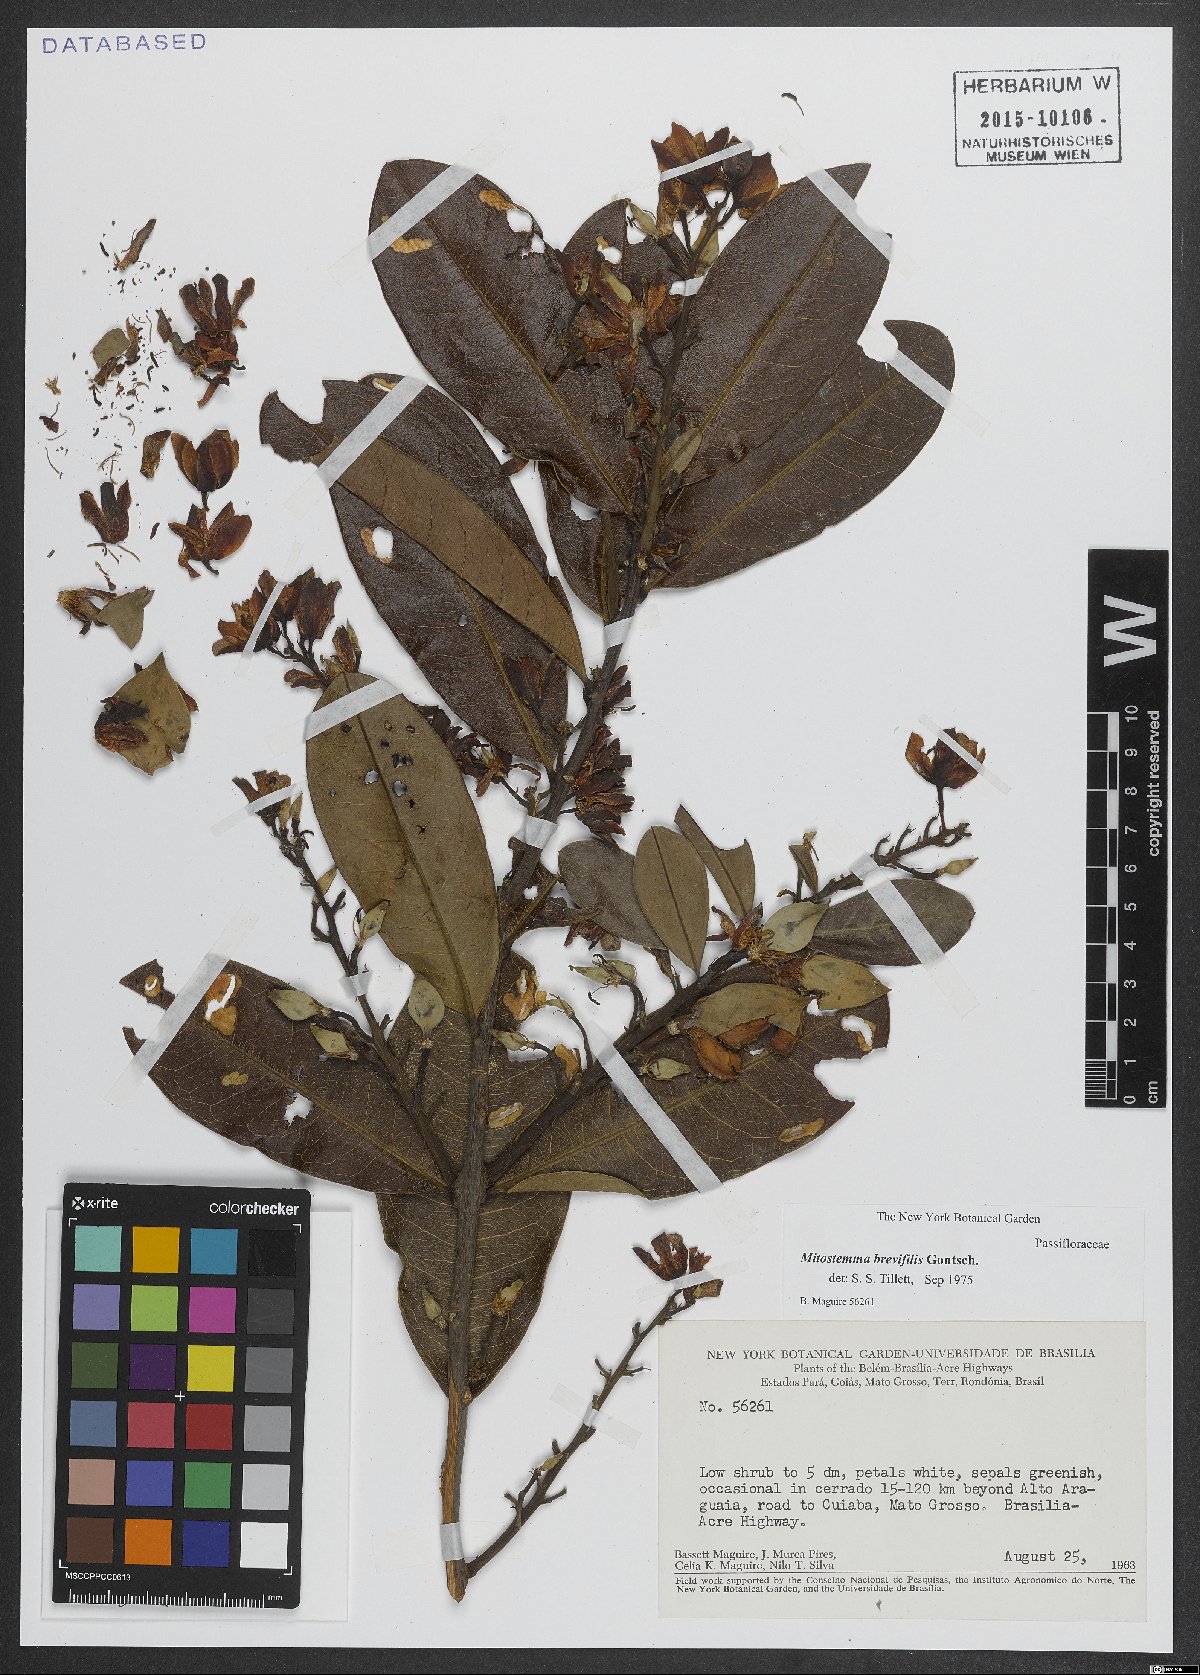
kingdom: Plantae
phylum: Tracheophyta
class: Magnoliopsida
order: Malpighiales
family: Passifloraceae
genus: Mitostemma
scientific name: Mitostemma brevifilis
